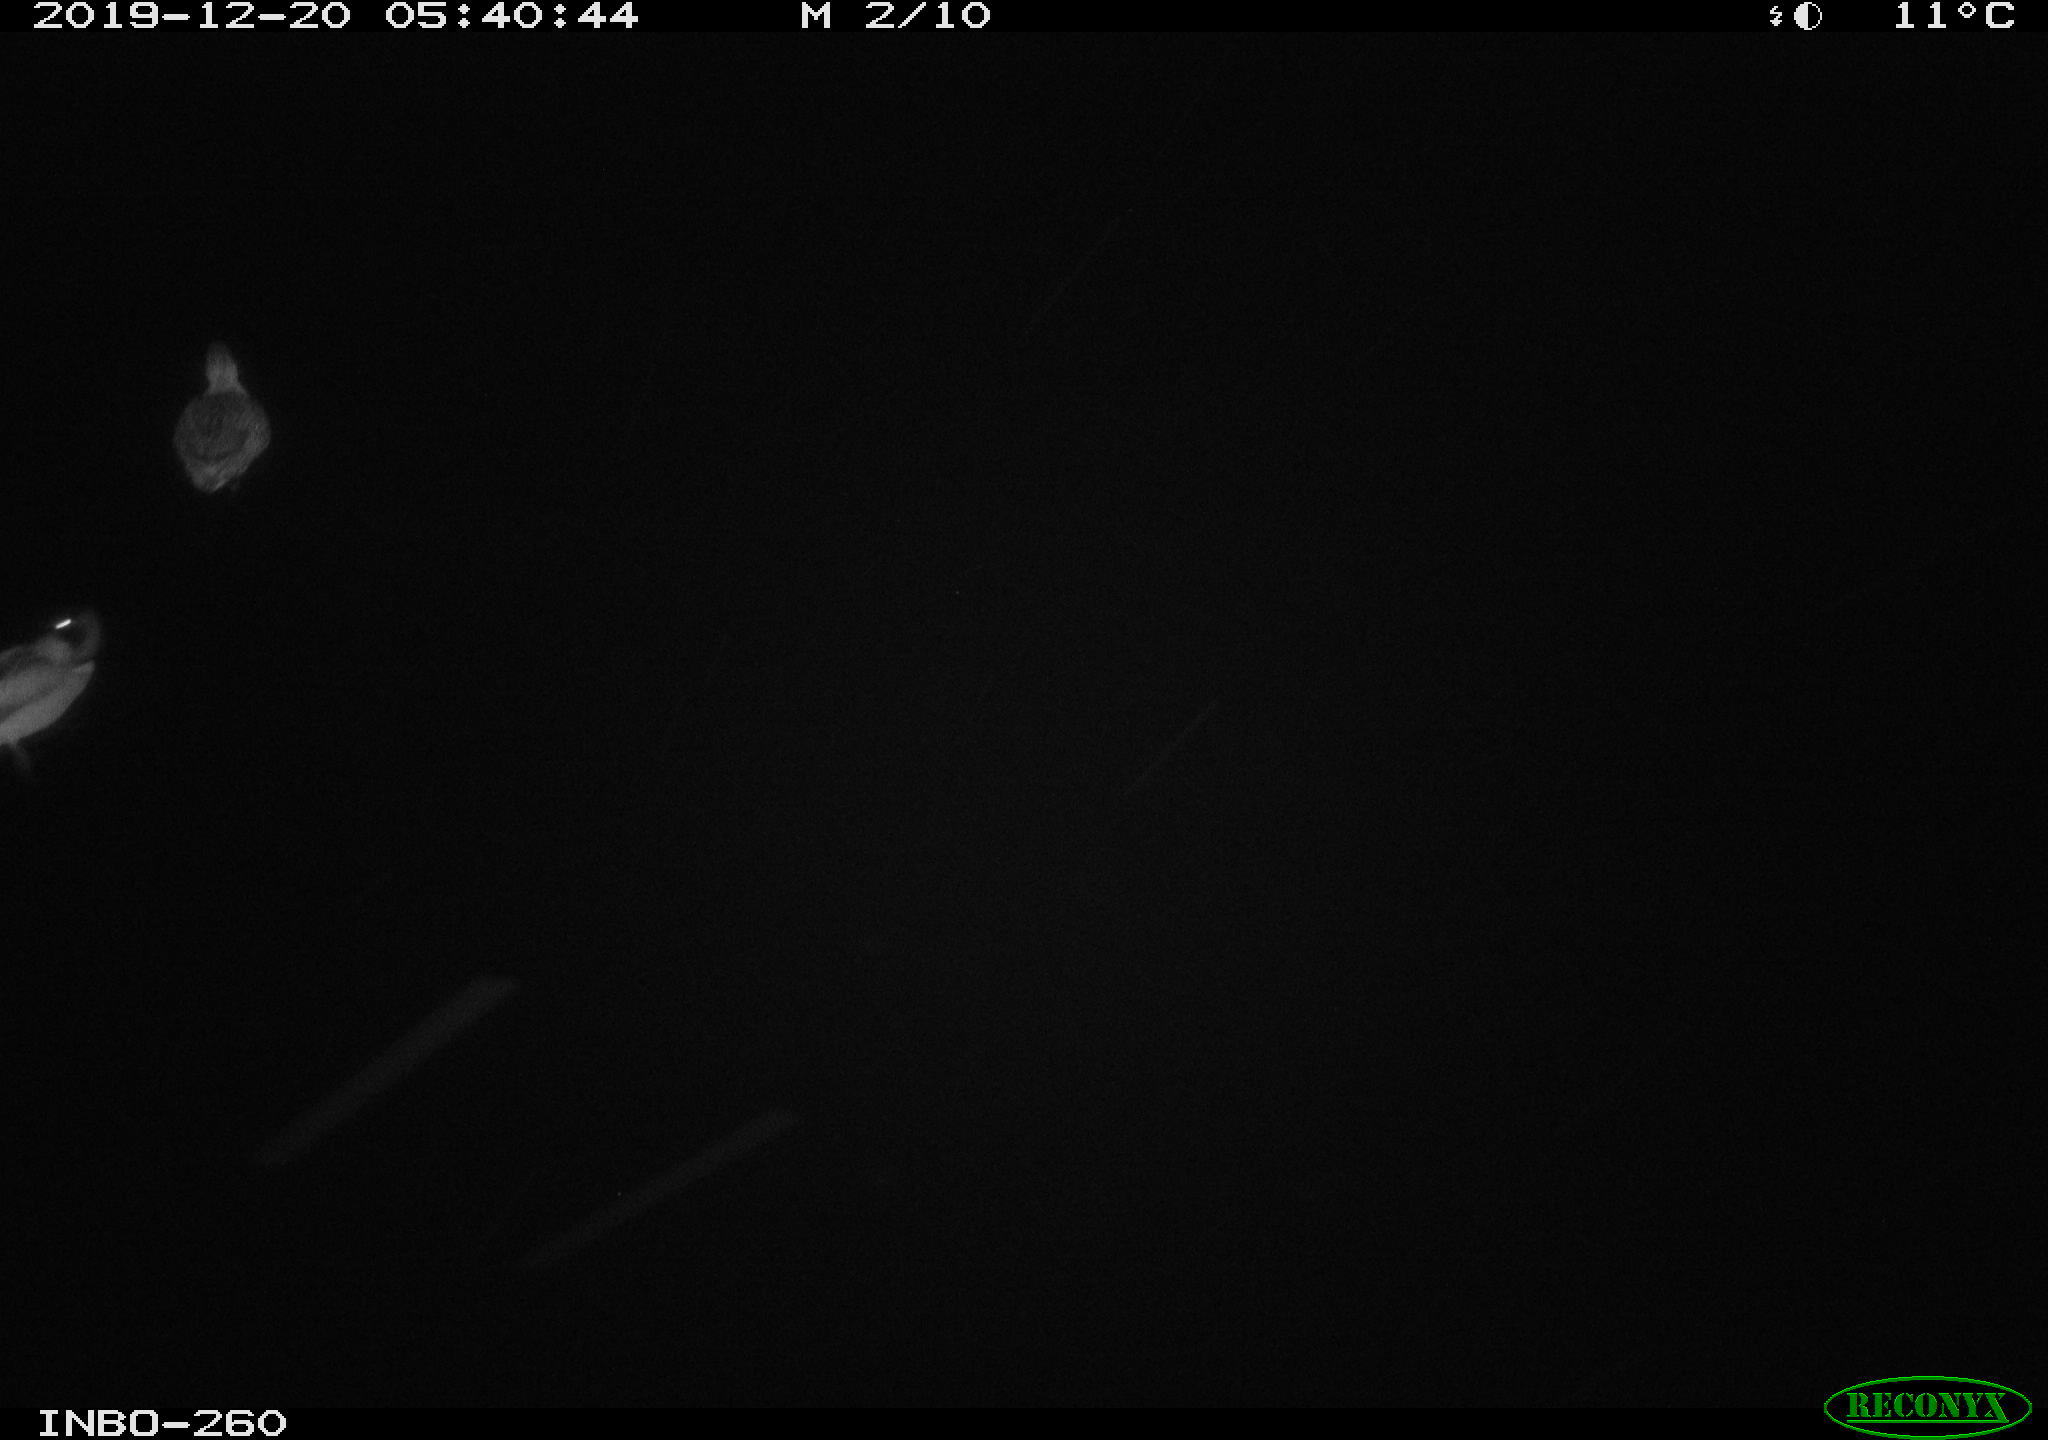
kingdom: Animalia
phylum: Chordata
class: Aves
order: Anseriformes
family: Anatidae
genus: Anas
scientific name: Anas platyrhynchos
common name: Mallard
